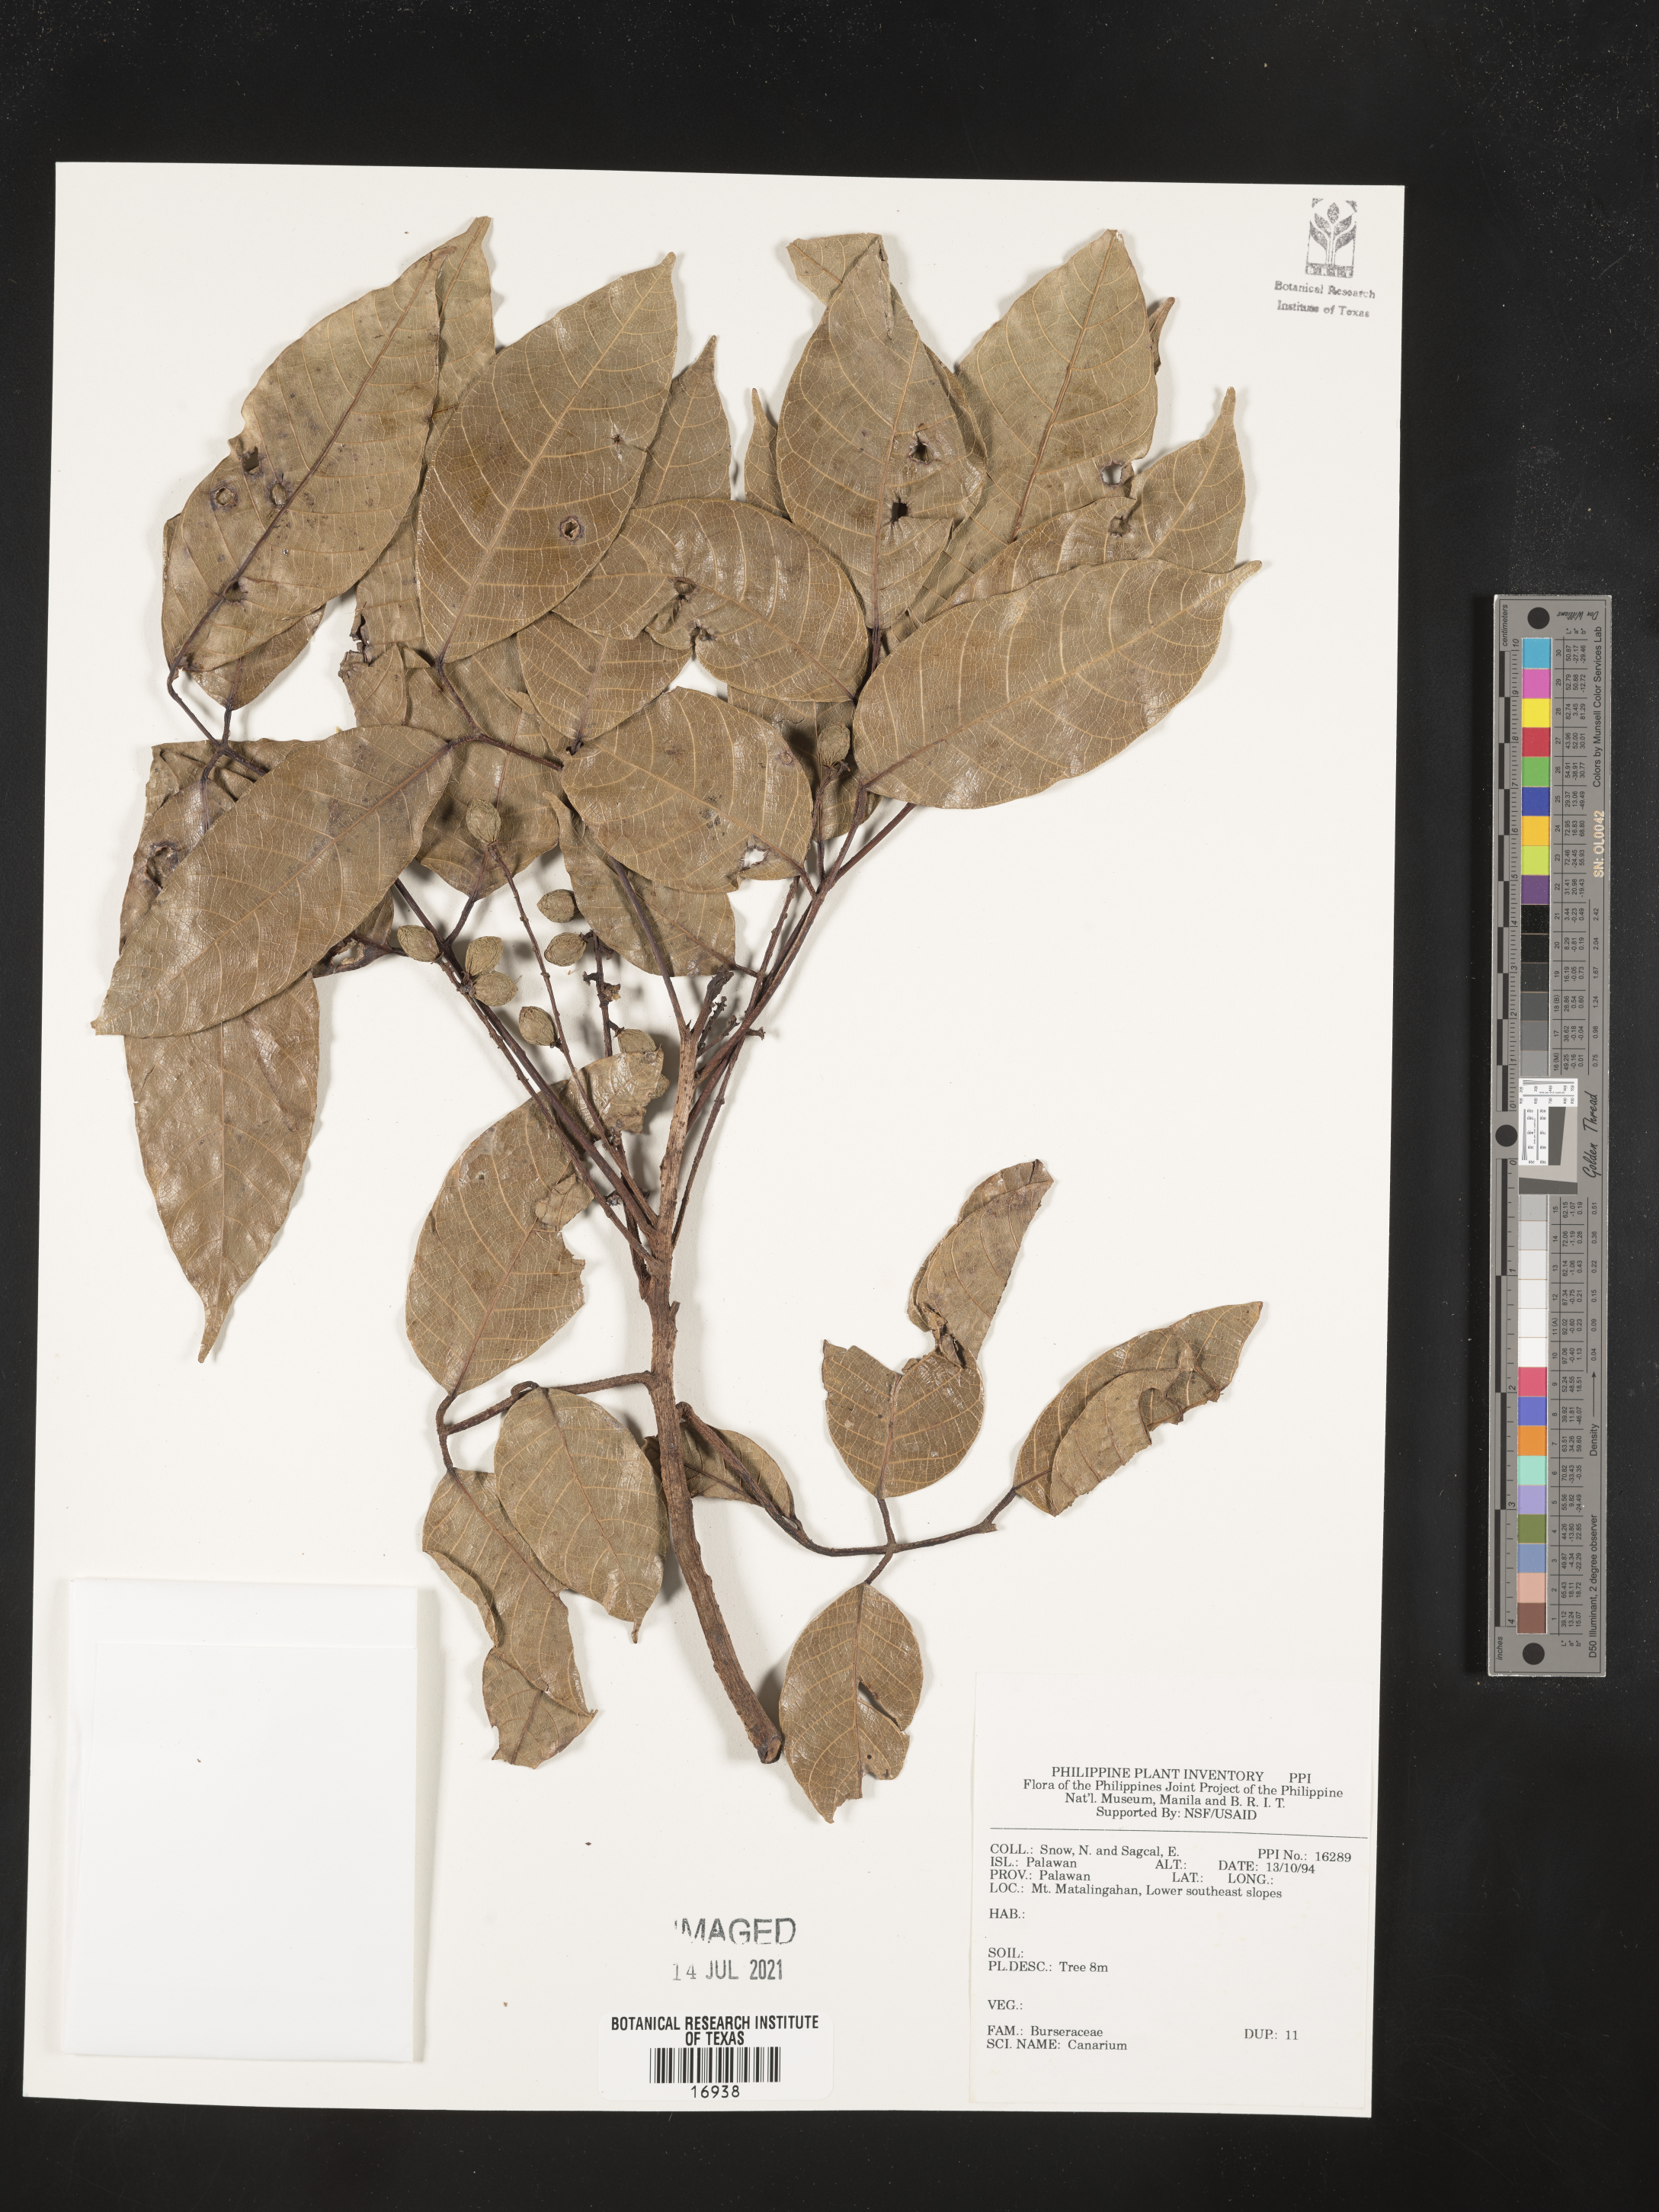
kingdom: Plantae
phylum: Tracheophyta
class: Magnoliopsida
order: Sapindales
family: Burseraceae
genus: Canarium
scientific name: Canarium
